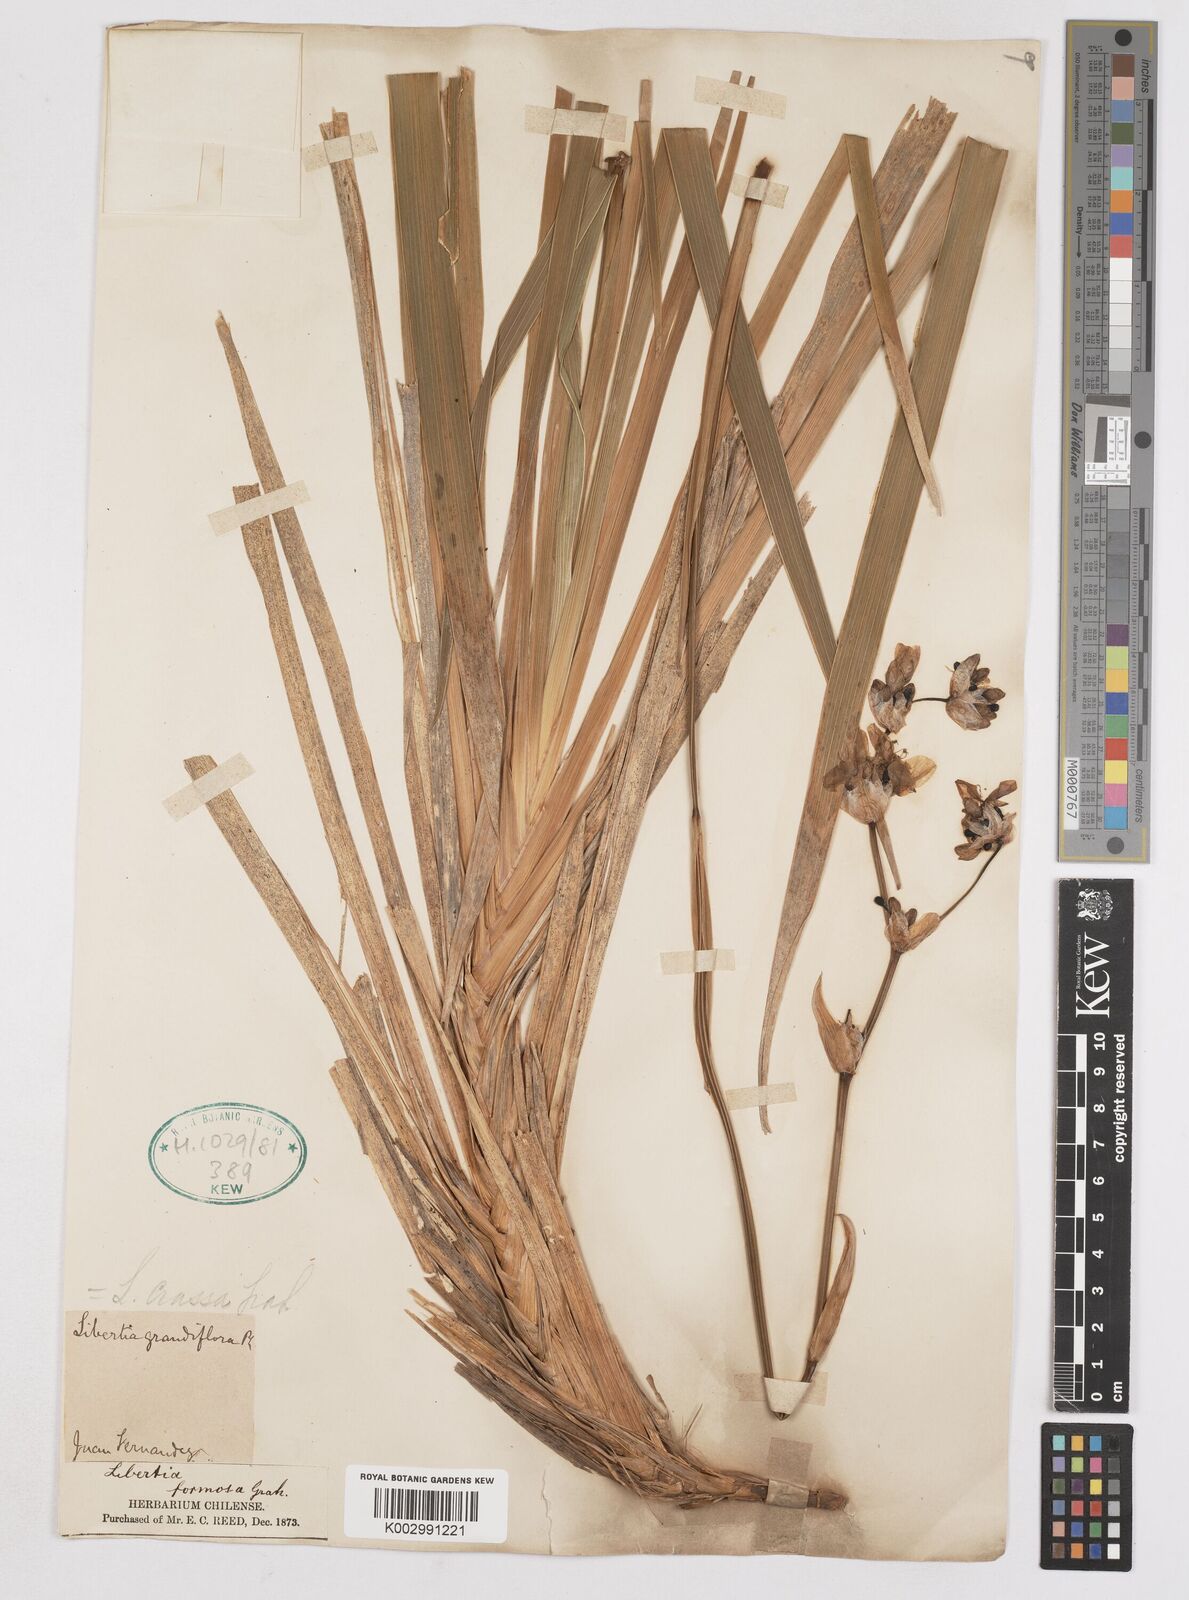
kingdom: Plantae
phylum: Tracheophyta
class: Liliopsida
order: Asparagales
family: Iridaceae
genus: Libertia
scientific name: Libertia chilensis
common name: Satin flower
